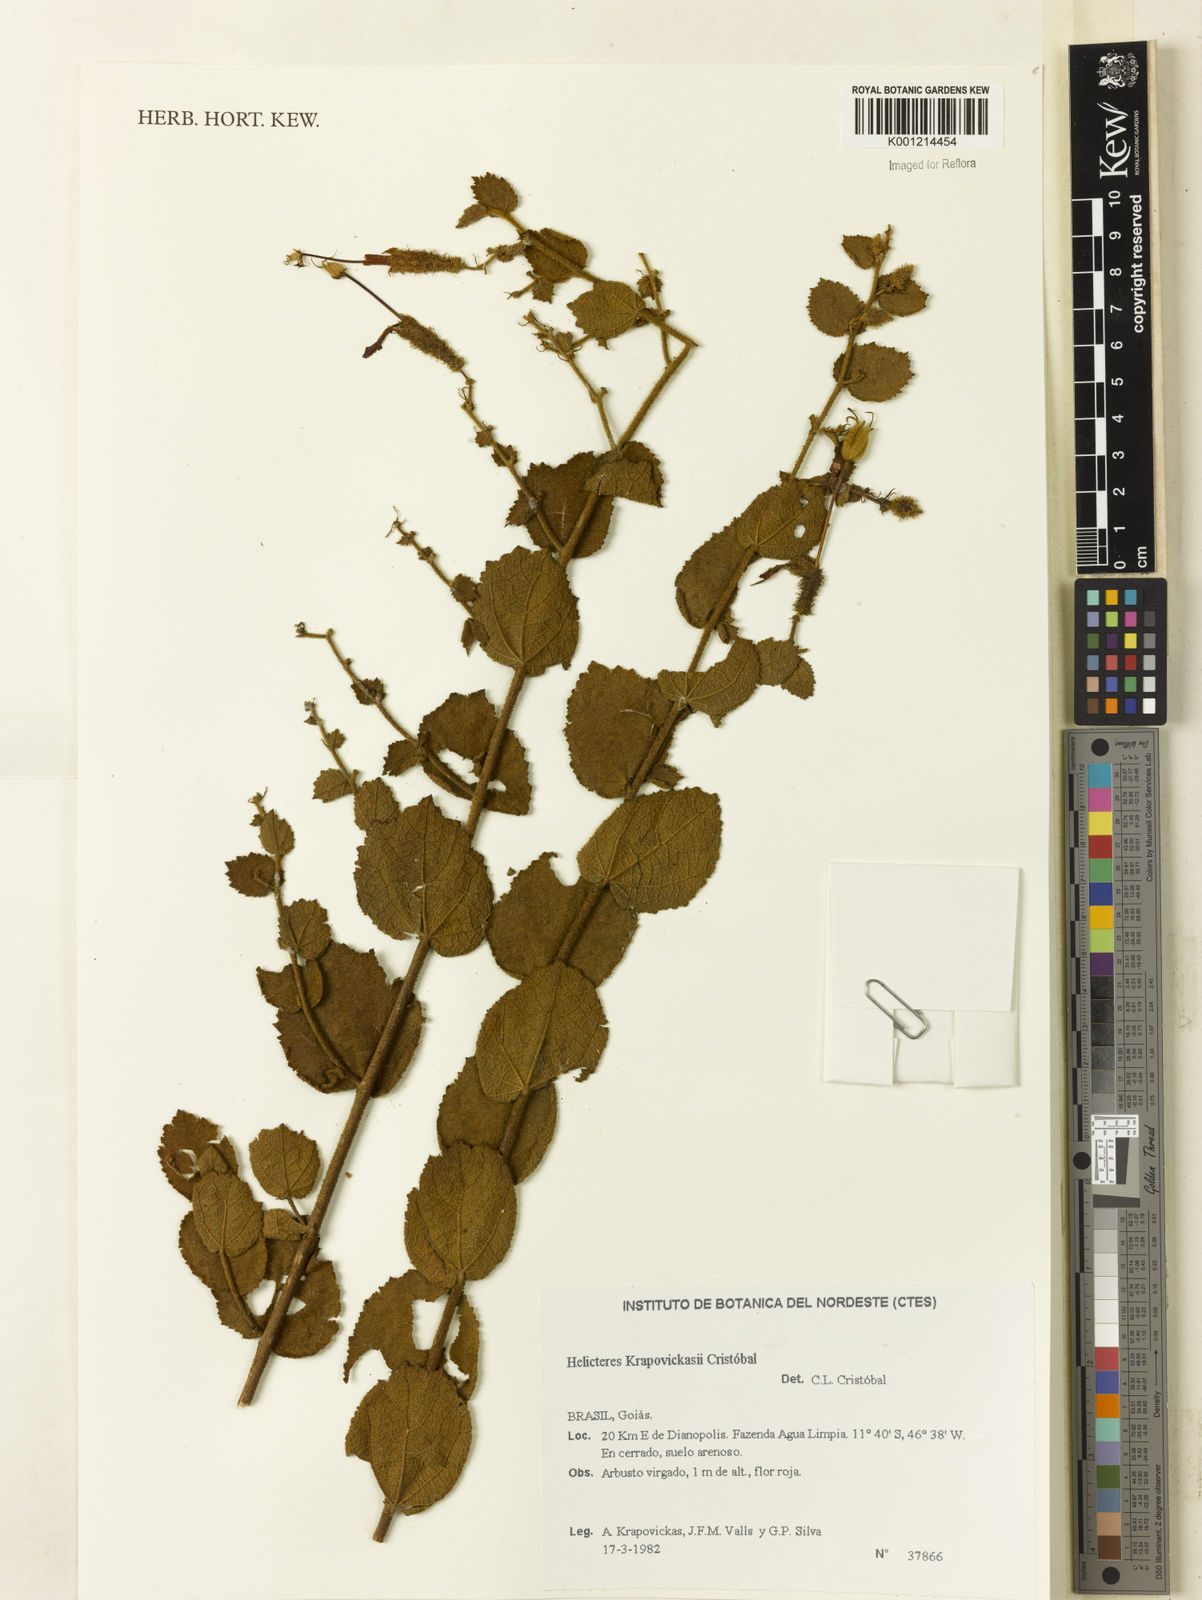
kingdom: Plantae
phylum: Tracheophyta
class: Magnoliopsida
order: Malvales
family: Malvaceae
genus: Helicteres
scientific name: Helicteres
